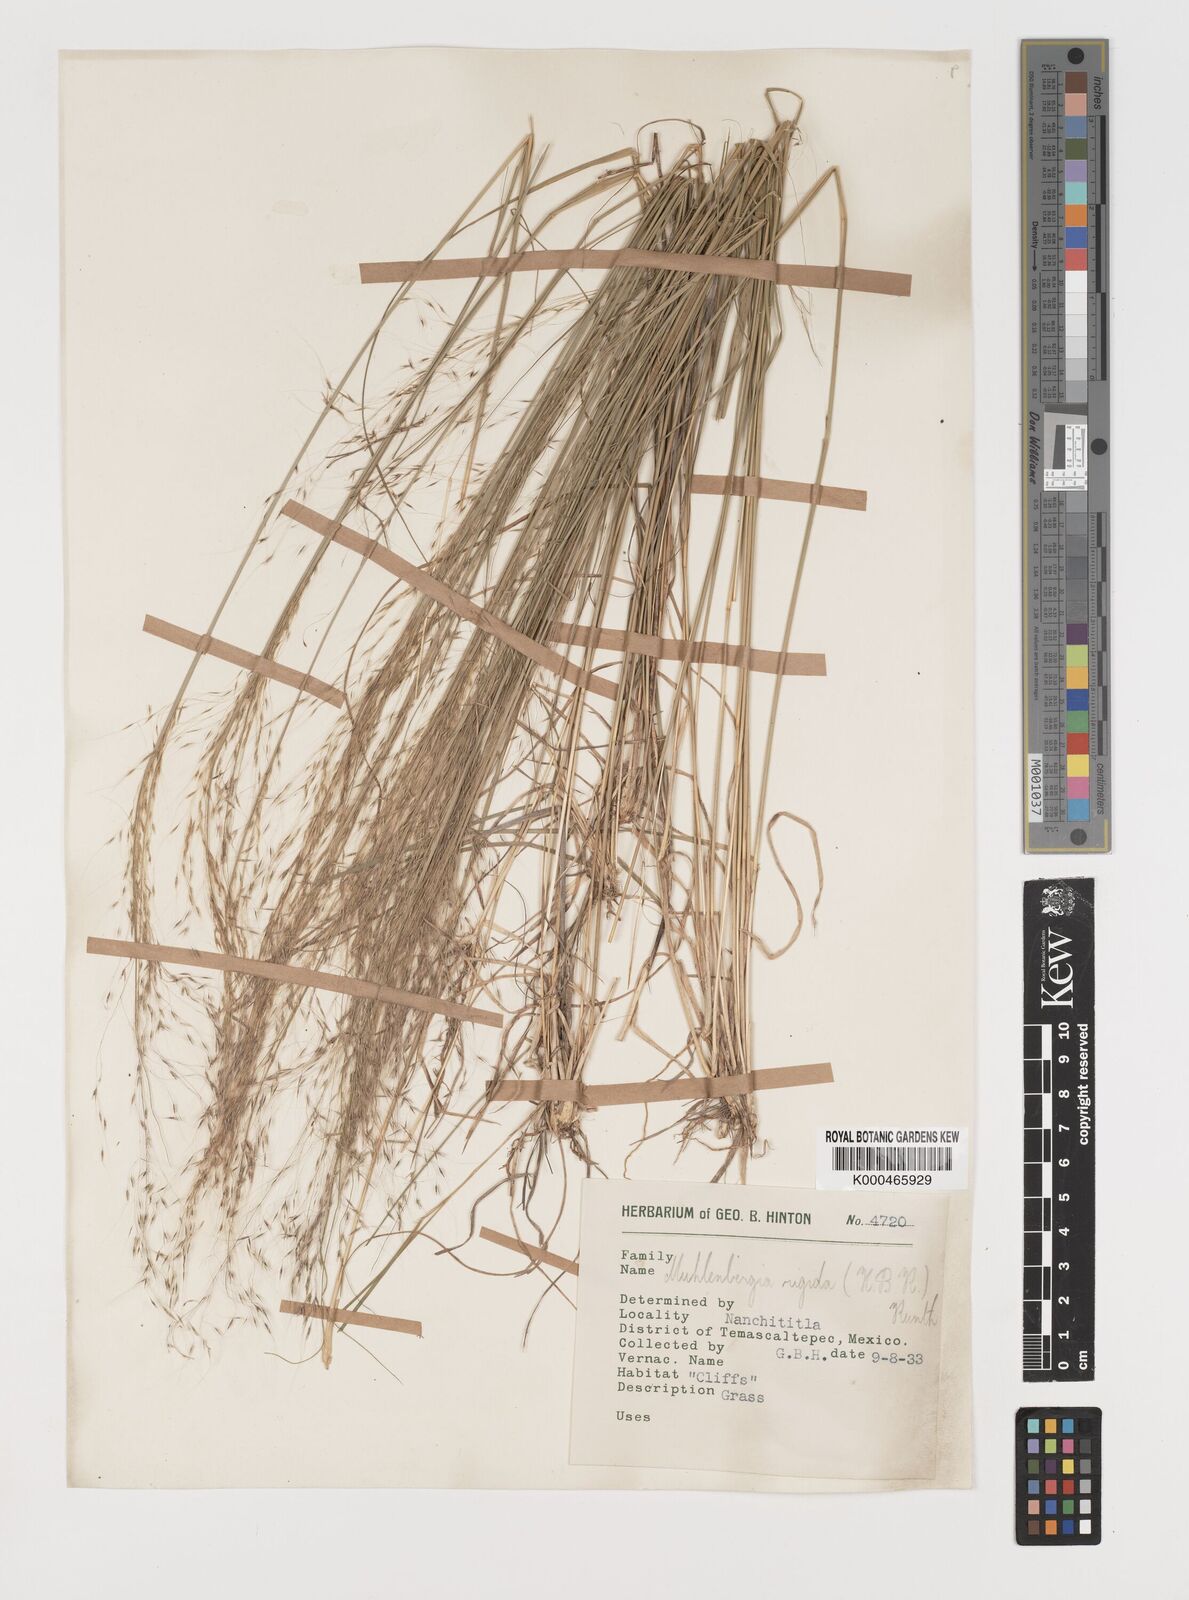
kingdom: Plantae
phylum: Tracheophyta
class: Liliopsida
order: Poales
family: Poaceae
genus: Muhlenbergia
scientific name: Muhlenbergia rigida
